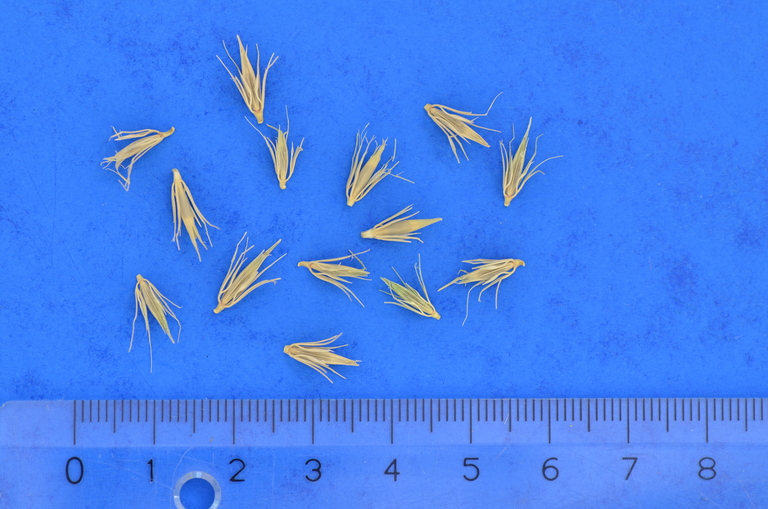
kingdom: Plantae
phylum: Tracheophyta
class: Liliopsida
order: Poales
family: Poaceae
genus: Hordeum
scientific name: Hordeum arizonicum
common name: Arizona barley
